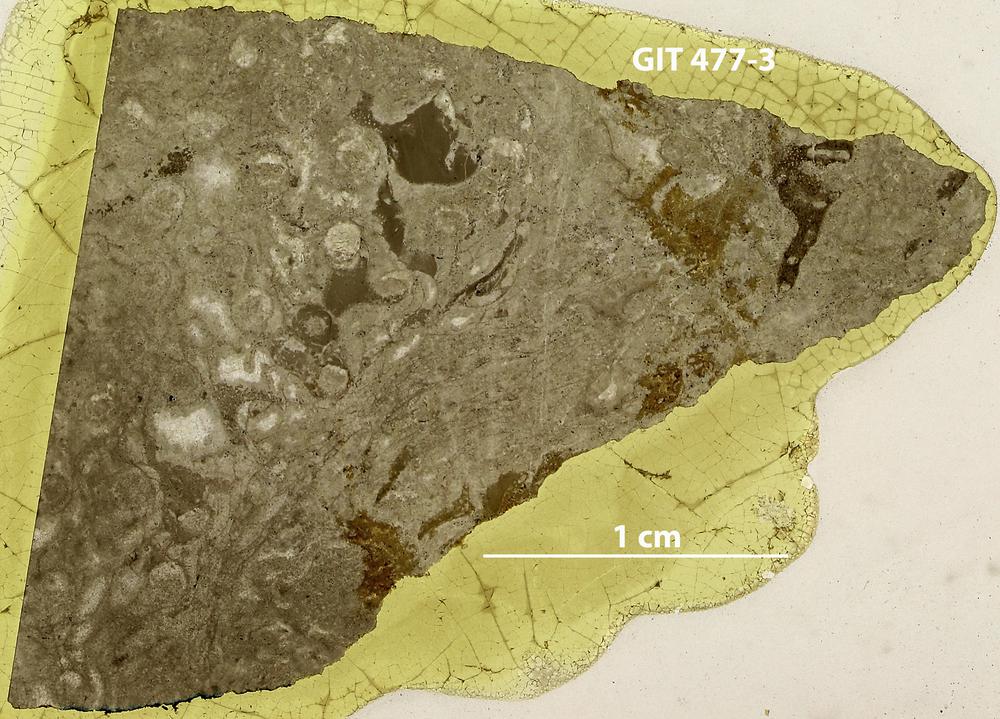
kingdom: Animalia
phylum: Porifera
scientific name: Porifera
